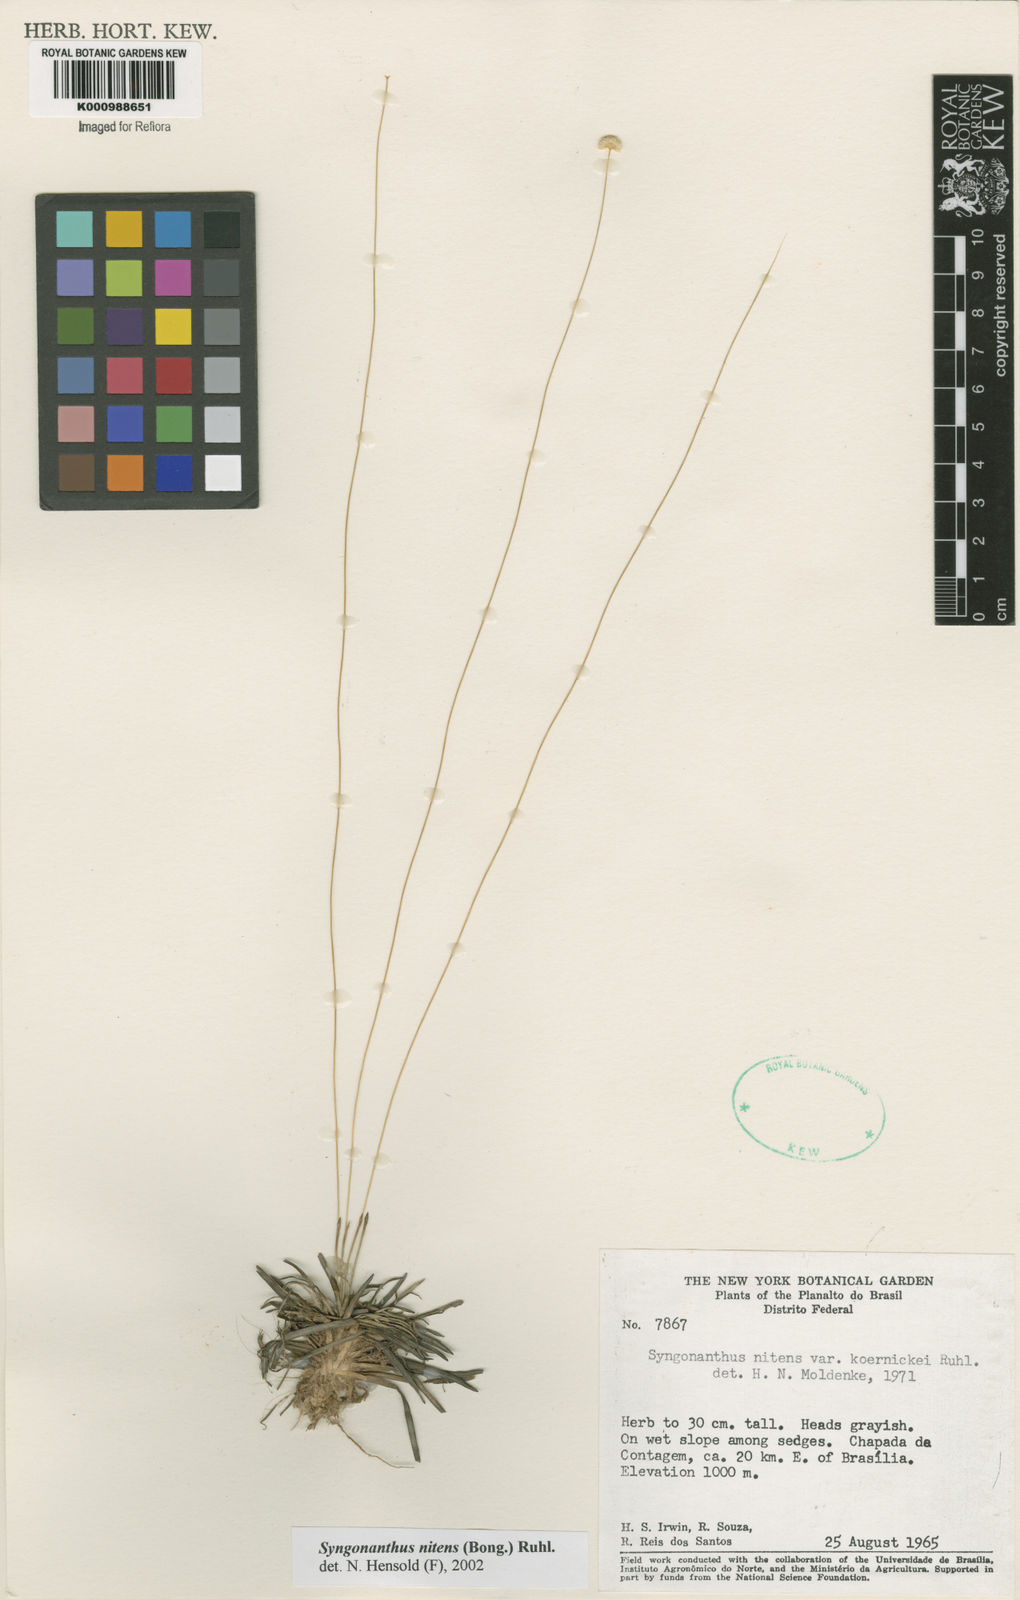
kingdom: Plantae
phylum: Tracheophyta
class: Liliopsida
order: Poales
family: Eriocaulaceae
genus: Syngonanthus
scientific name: Syngonanthus nitens
